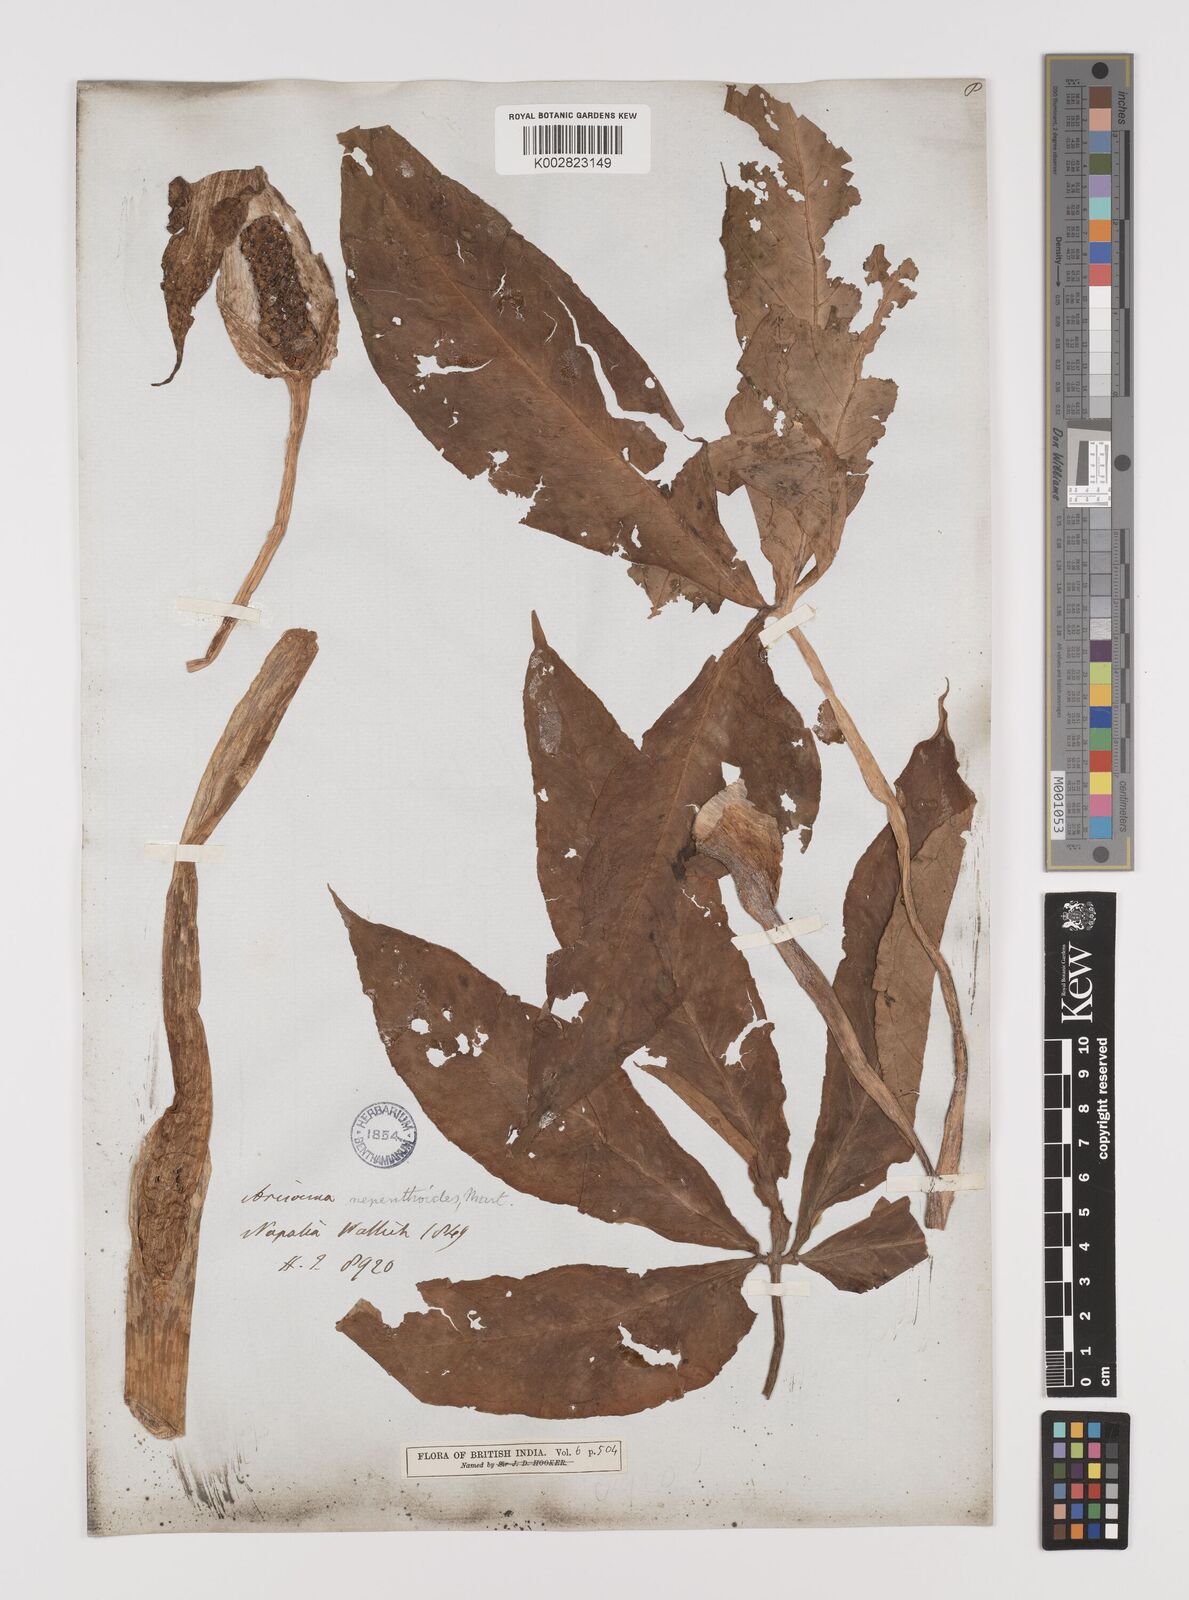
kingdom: Plantae
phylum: Tracheophyta
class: Liliopsida
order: Alismatales
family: Araceae
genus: Arisaema
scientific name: Arisaema nepenthoides
